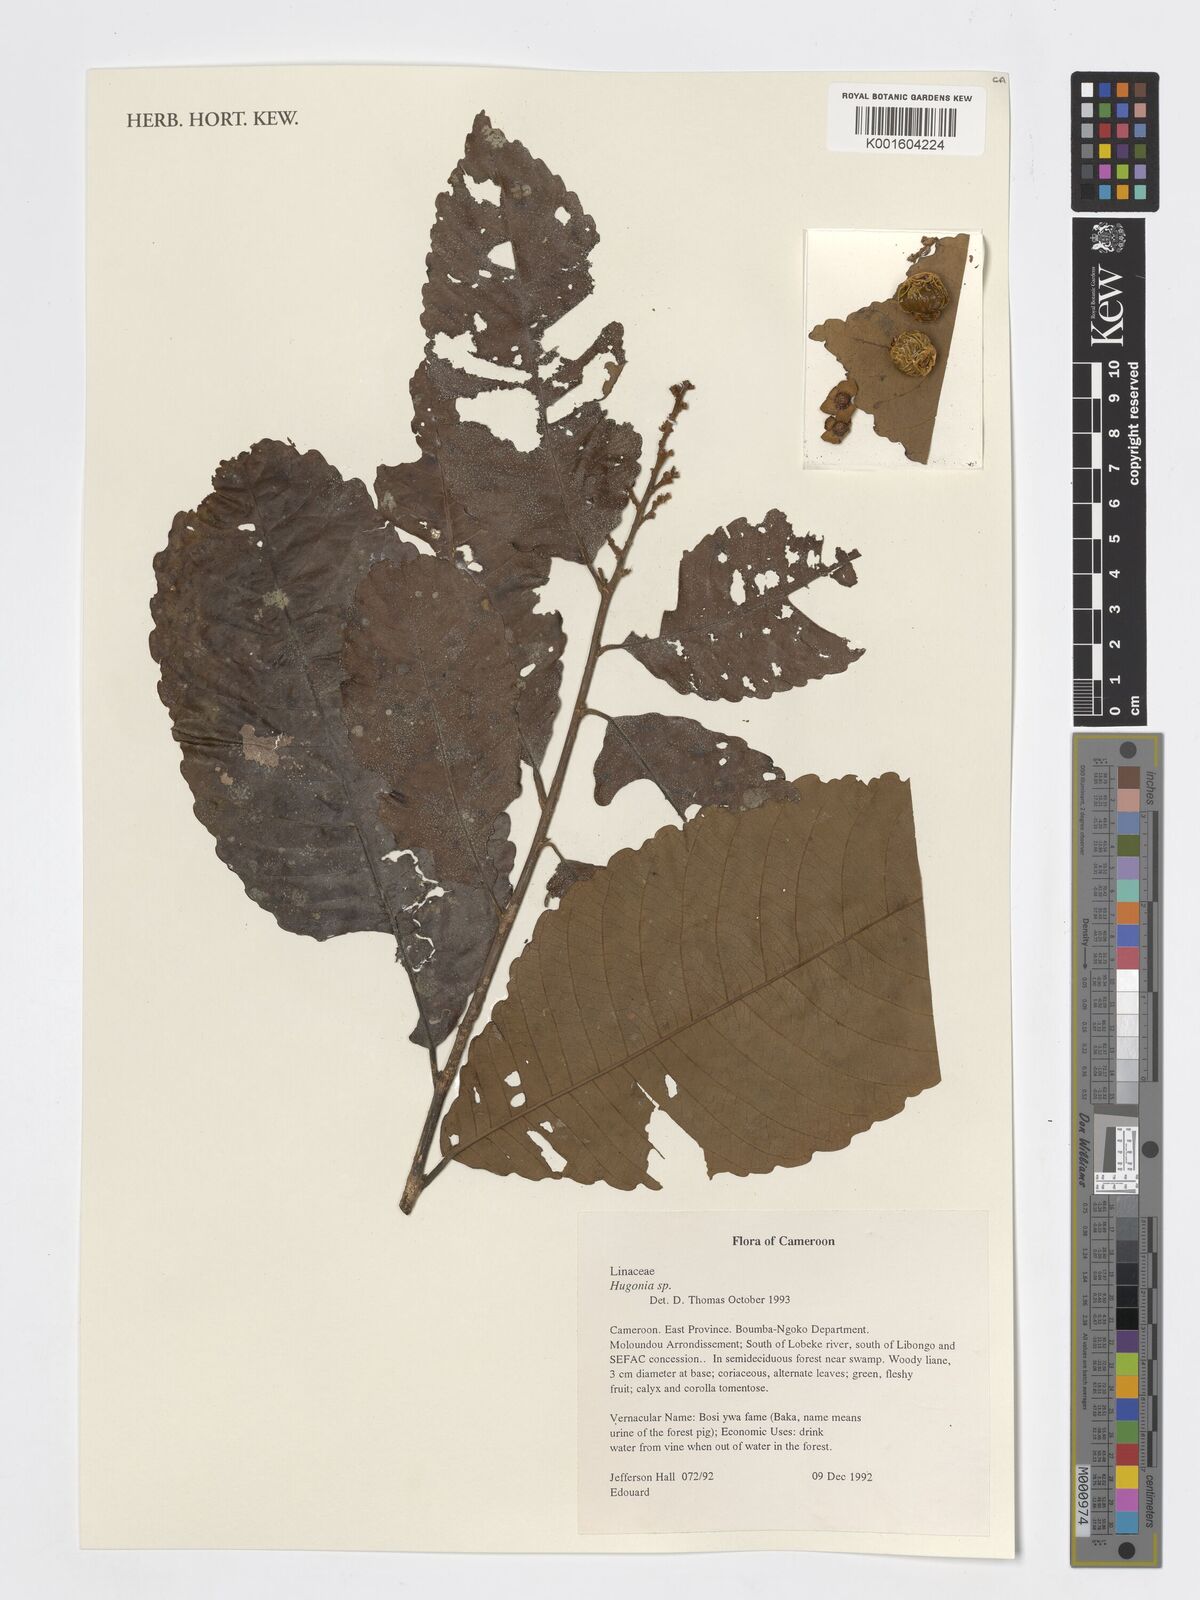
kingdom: Plantae
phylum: Tracheophyta
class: Magnoliopsida
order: Malpighiales
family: Linaceae
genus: Hugonia
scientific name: Hugonia
